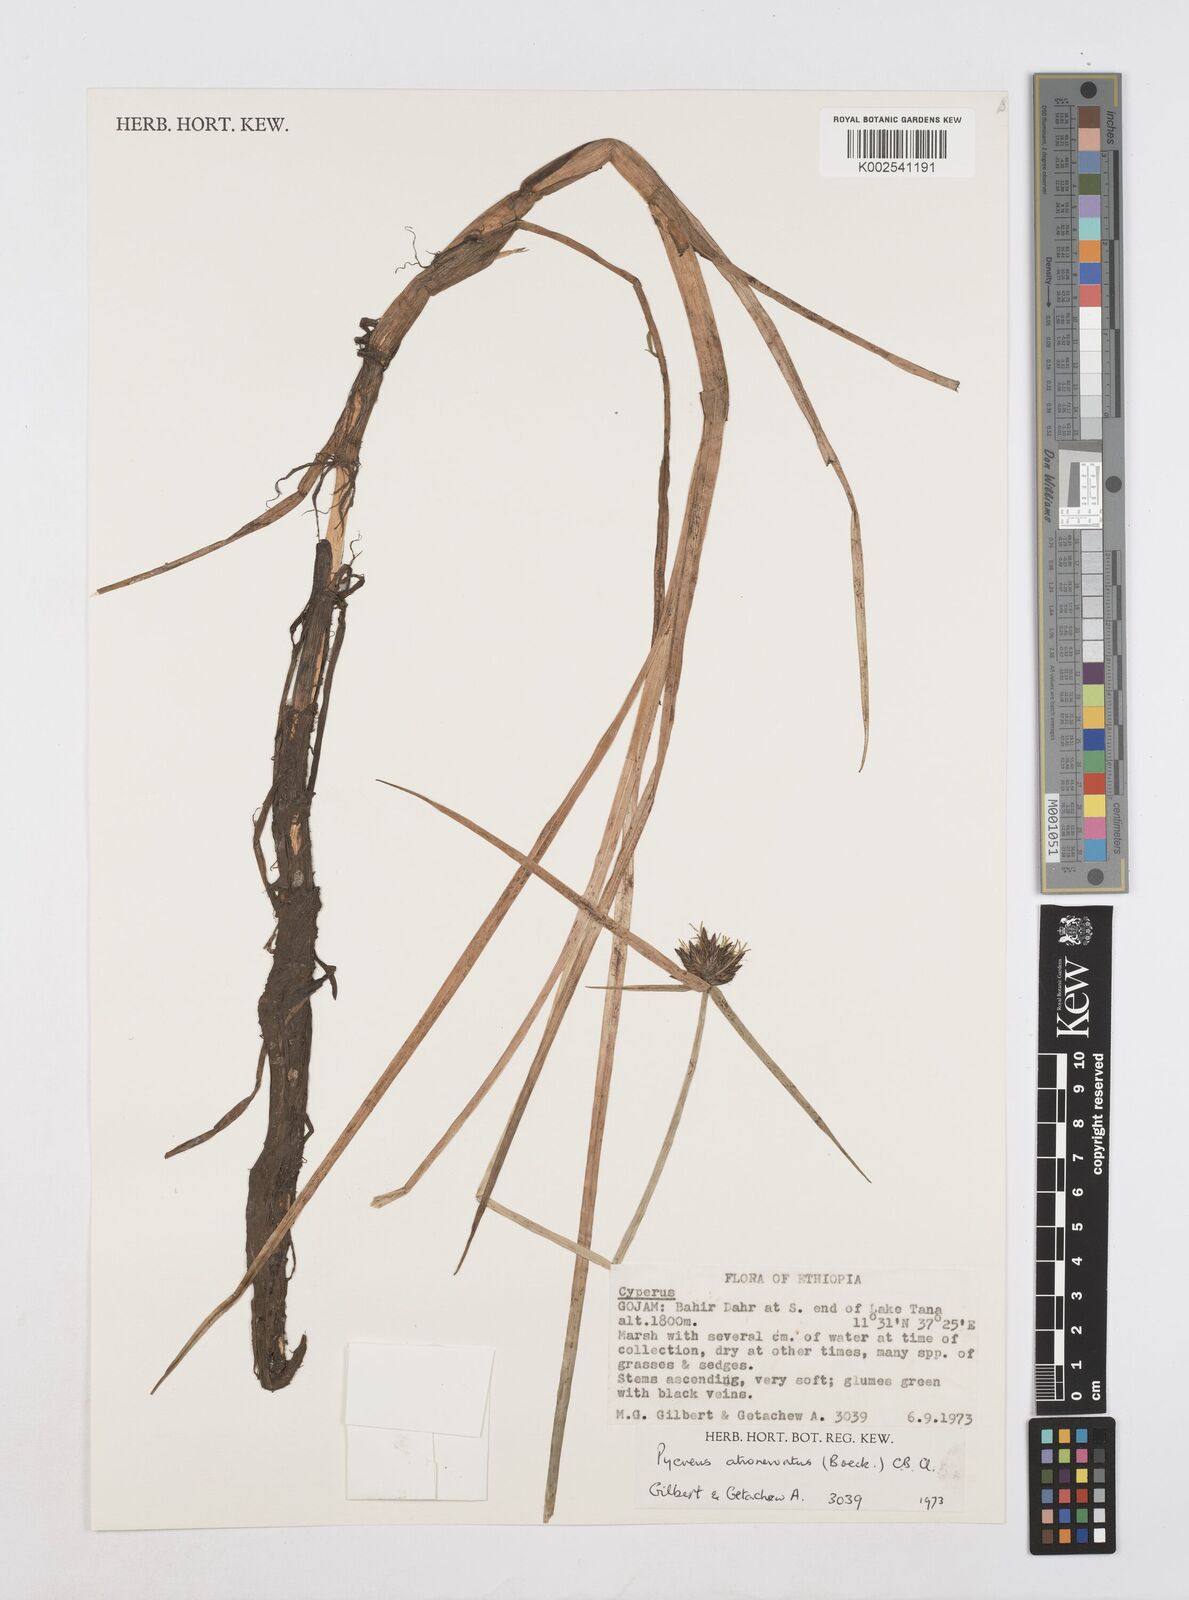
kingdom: Plantae
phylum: Tracheophyta
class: Liliopsida
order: Poales
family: Cyperaceae
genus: Cyperus
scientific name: Cyperus atronervatus
